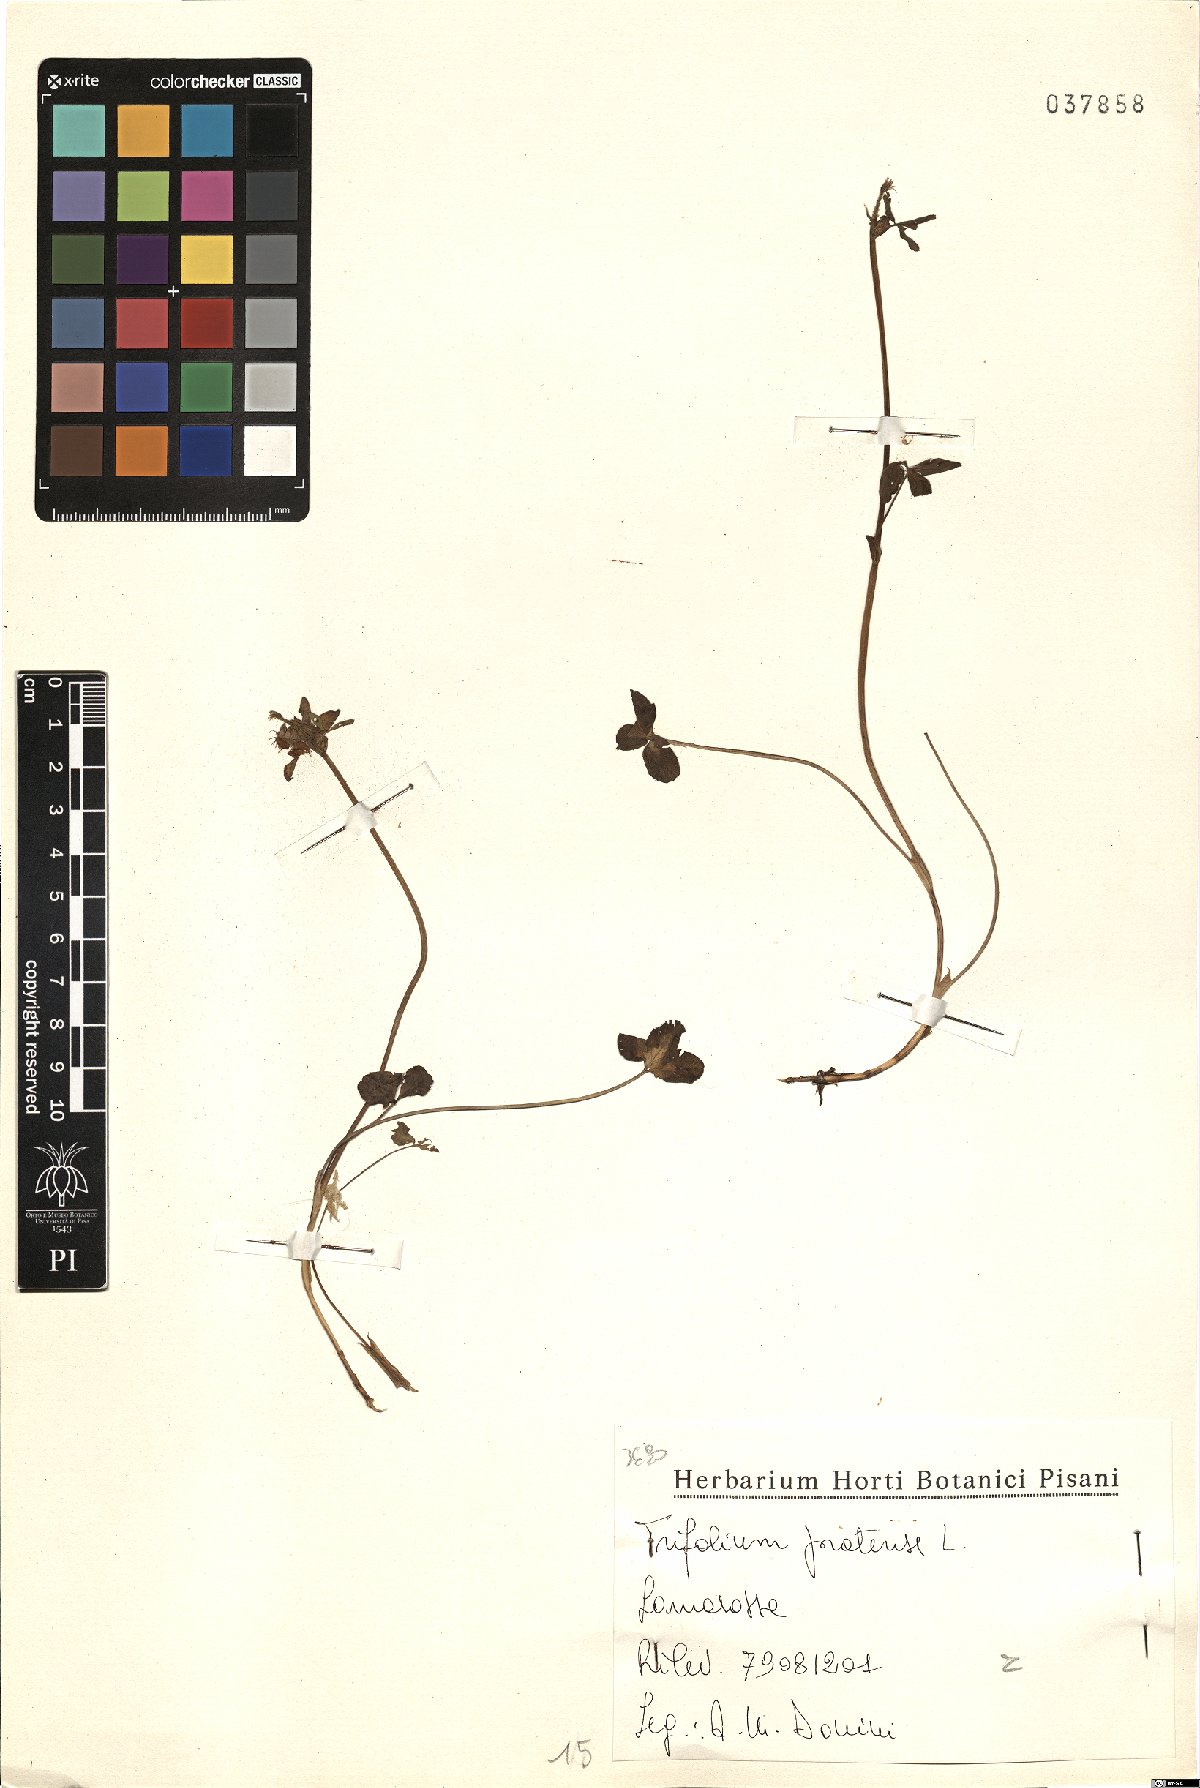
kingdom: Plantae
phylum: Tracheophyta
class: Magnoliopsida
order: Fabales
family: Fabaceae
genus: Trifolium
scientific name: Trifolium pratense
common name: Red clover
